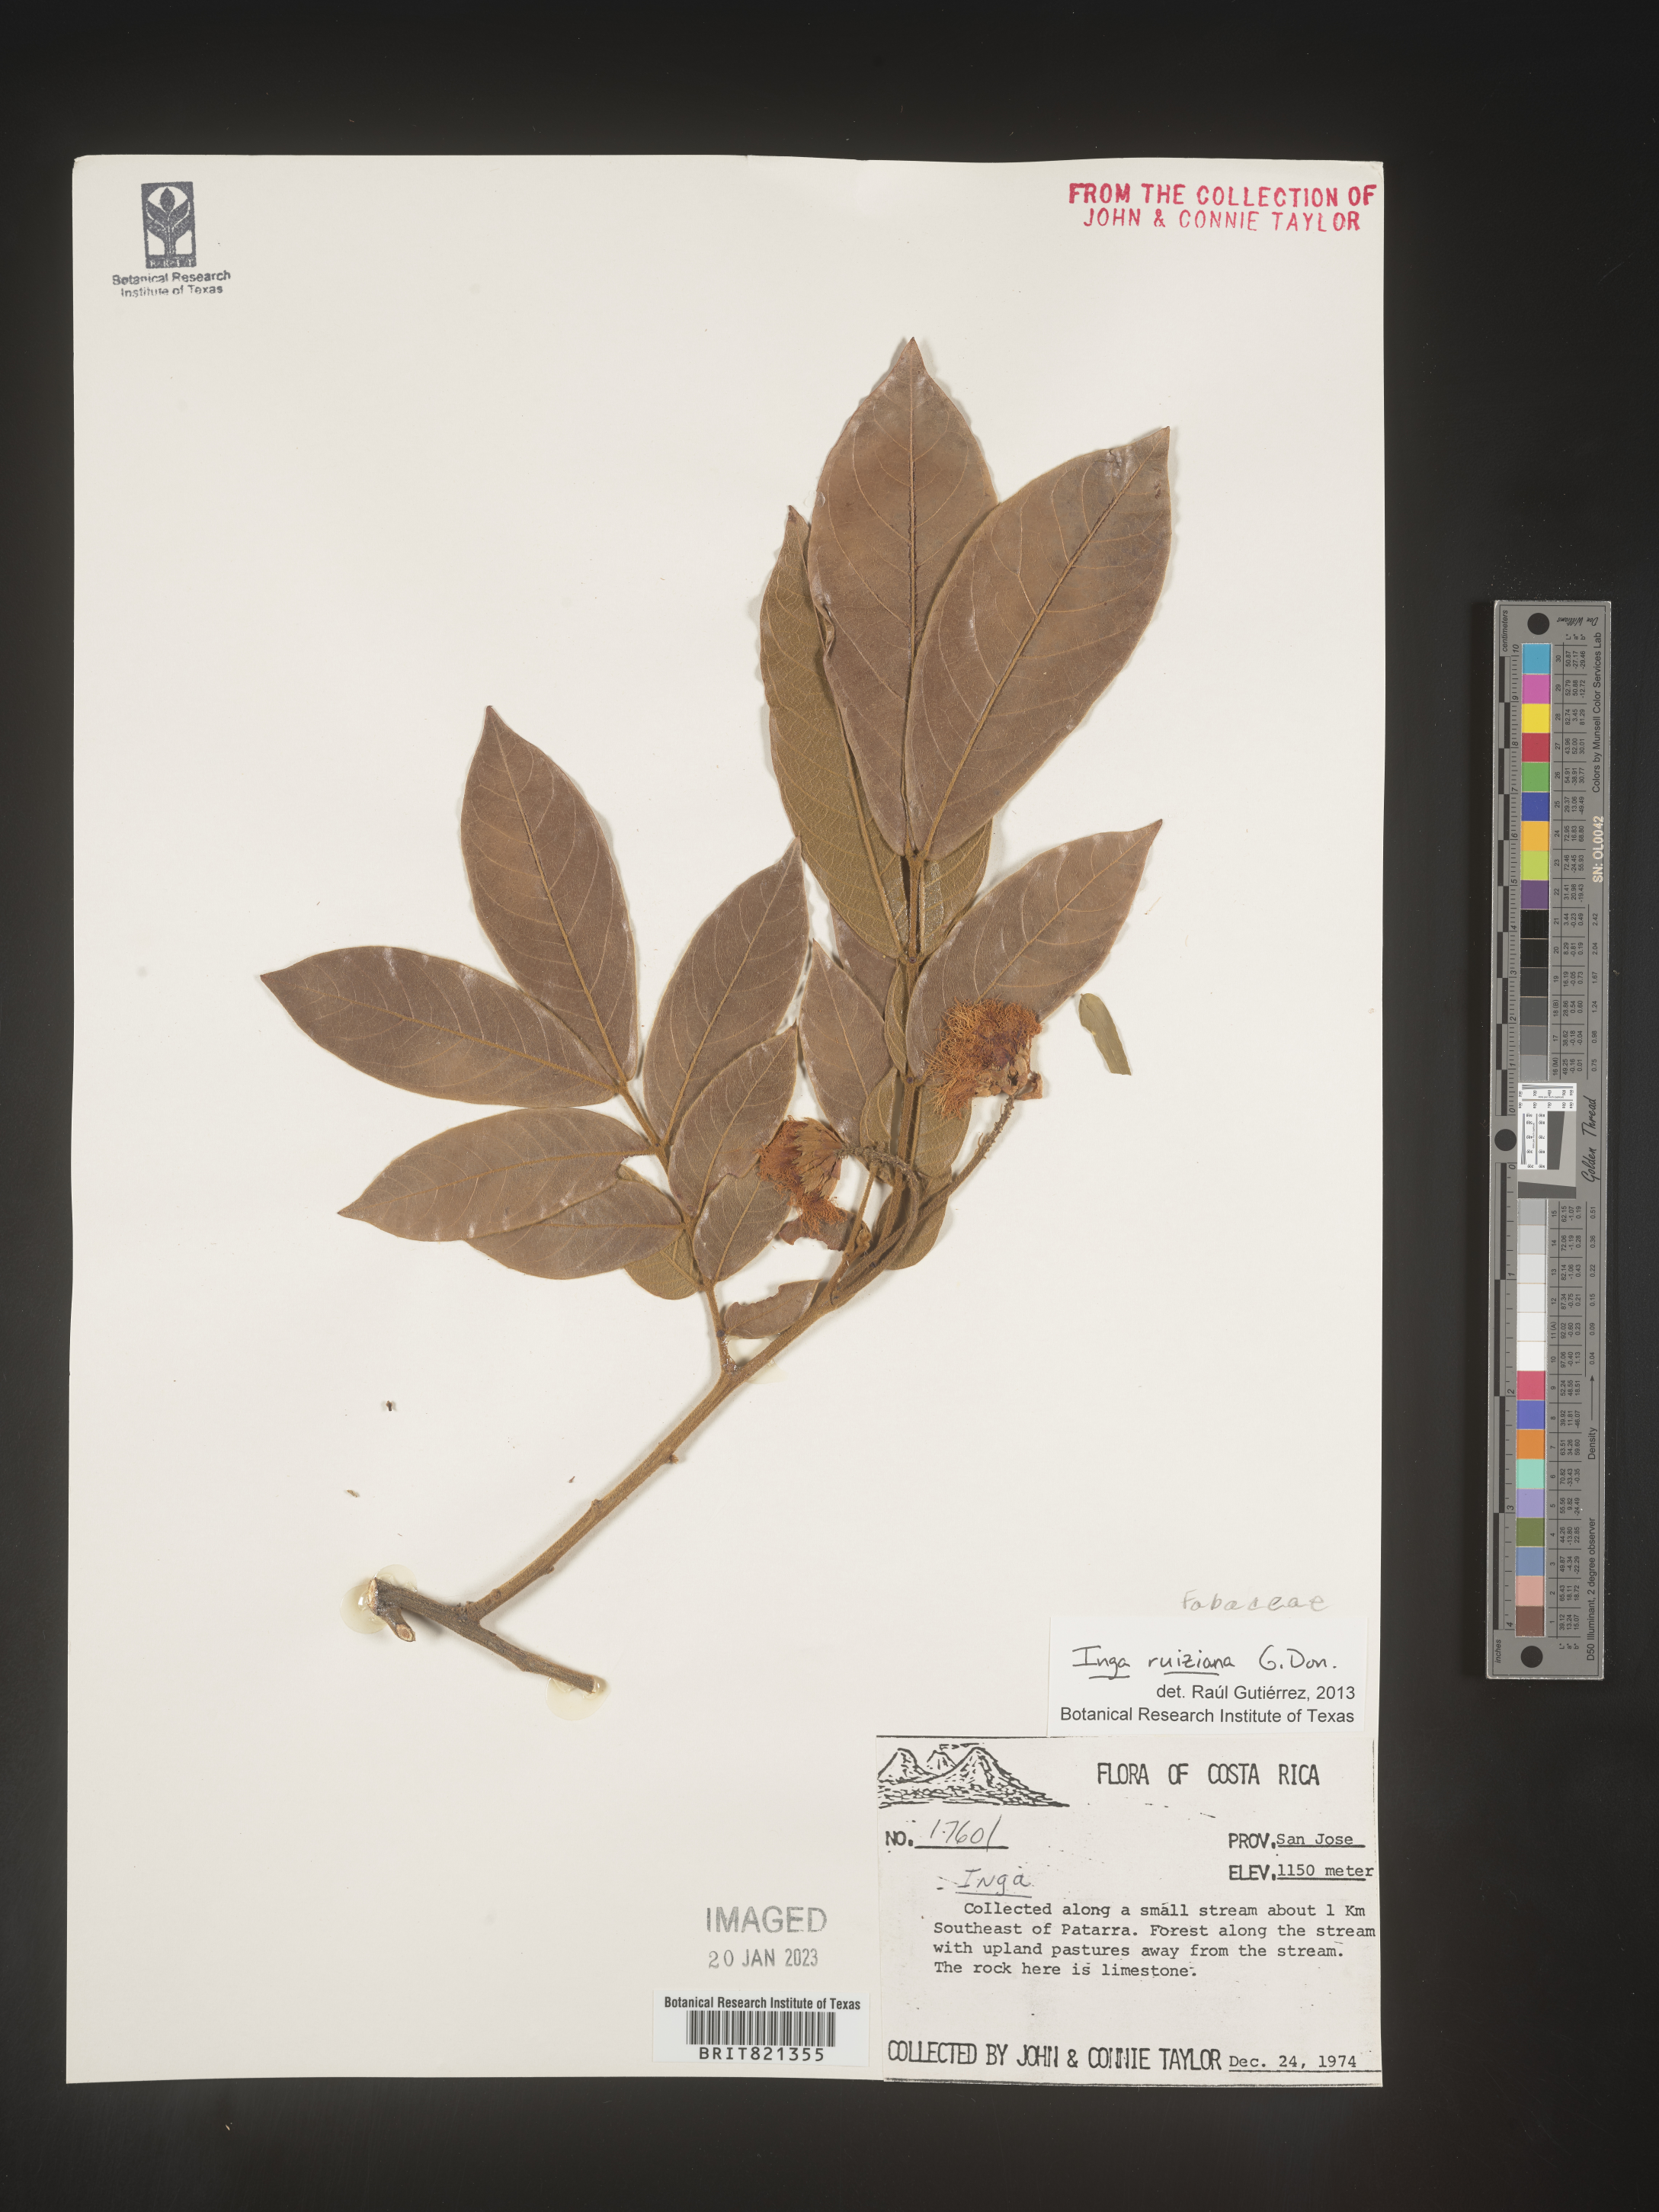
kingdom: Plantae
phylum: Tracheophyta
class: Magnoliopsida
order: Fabales
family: Fabaceae
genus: Inga
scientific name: Inga
